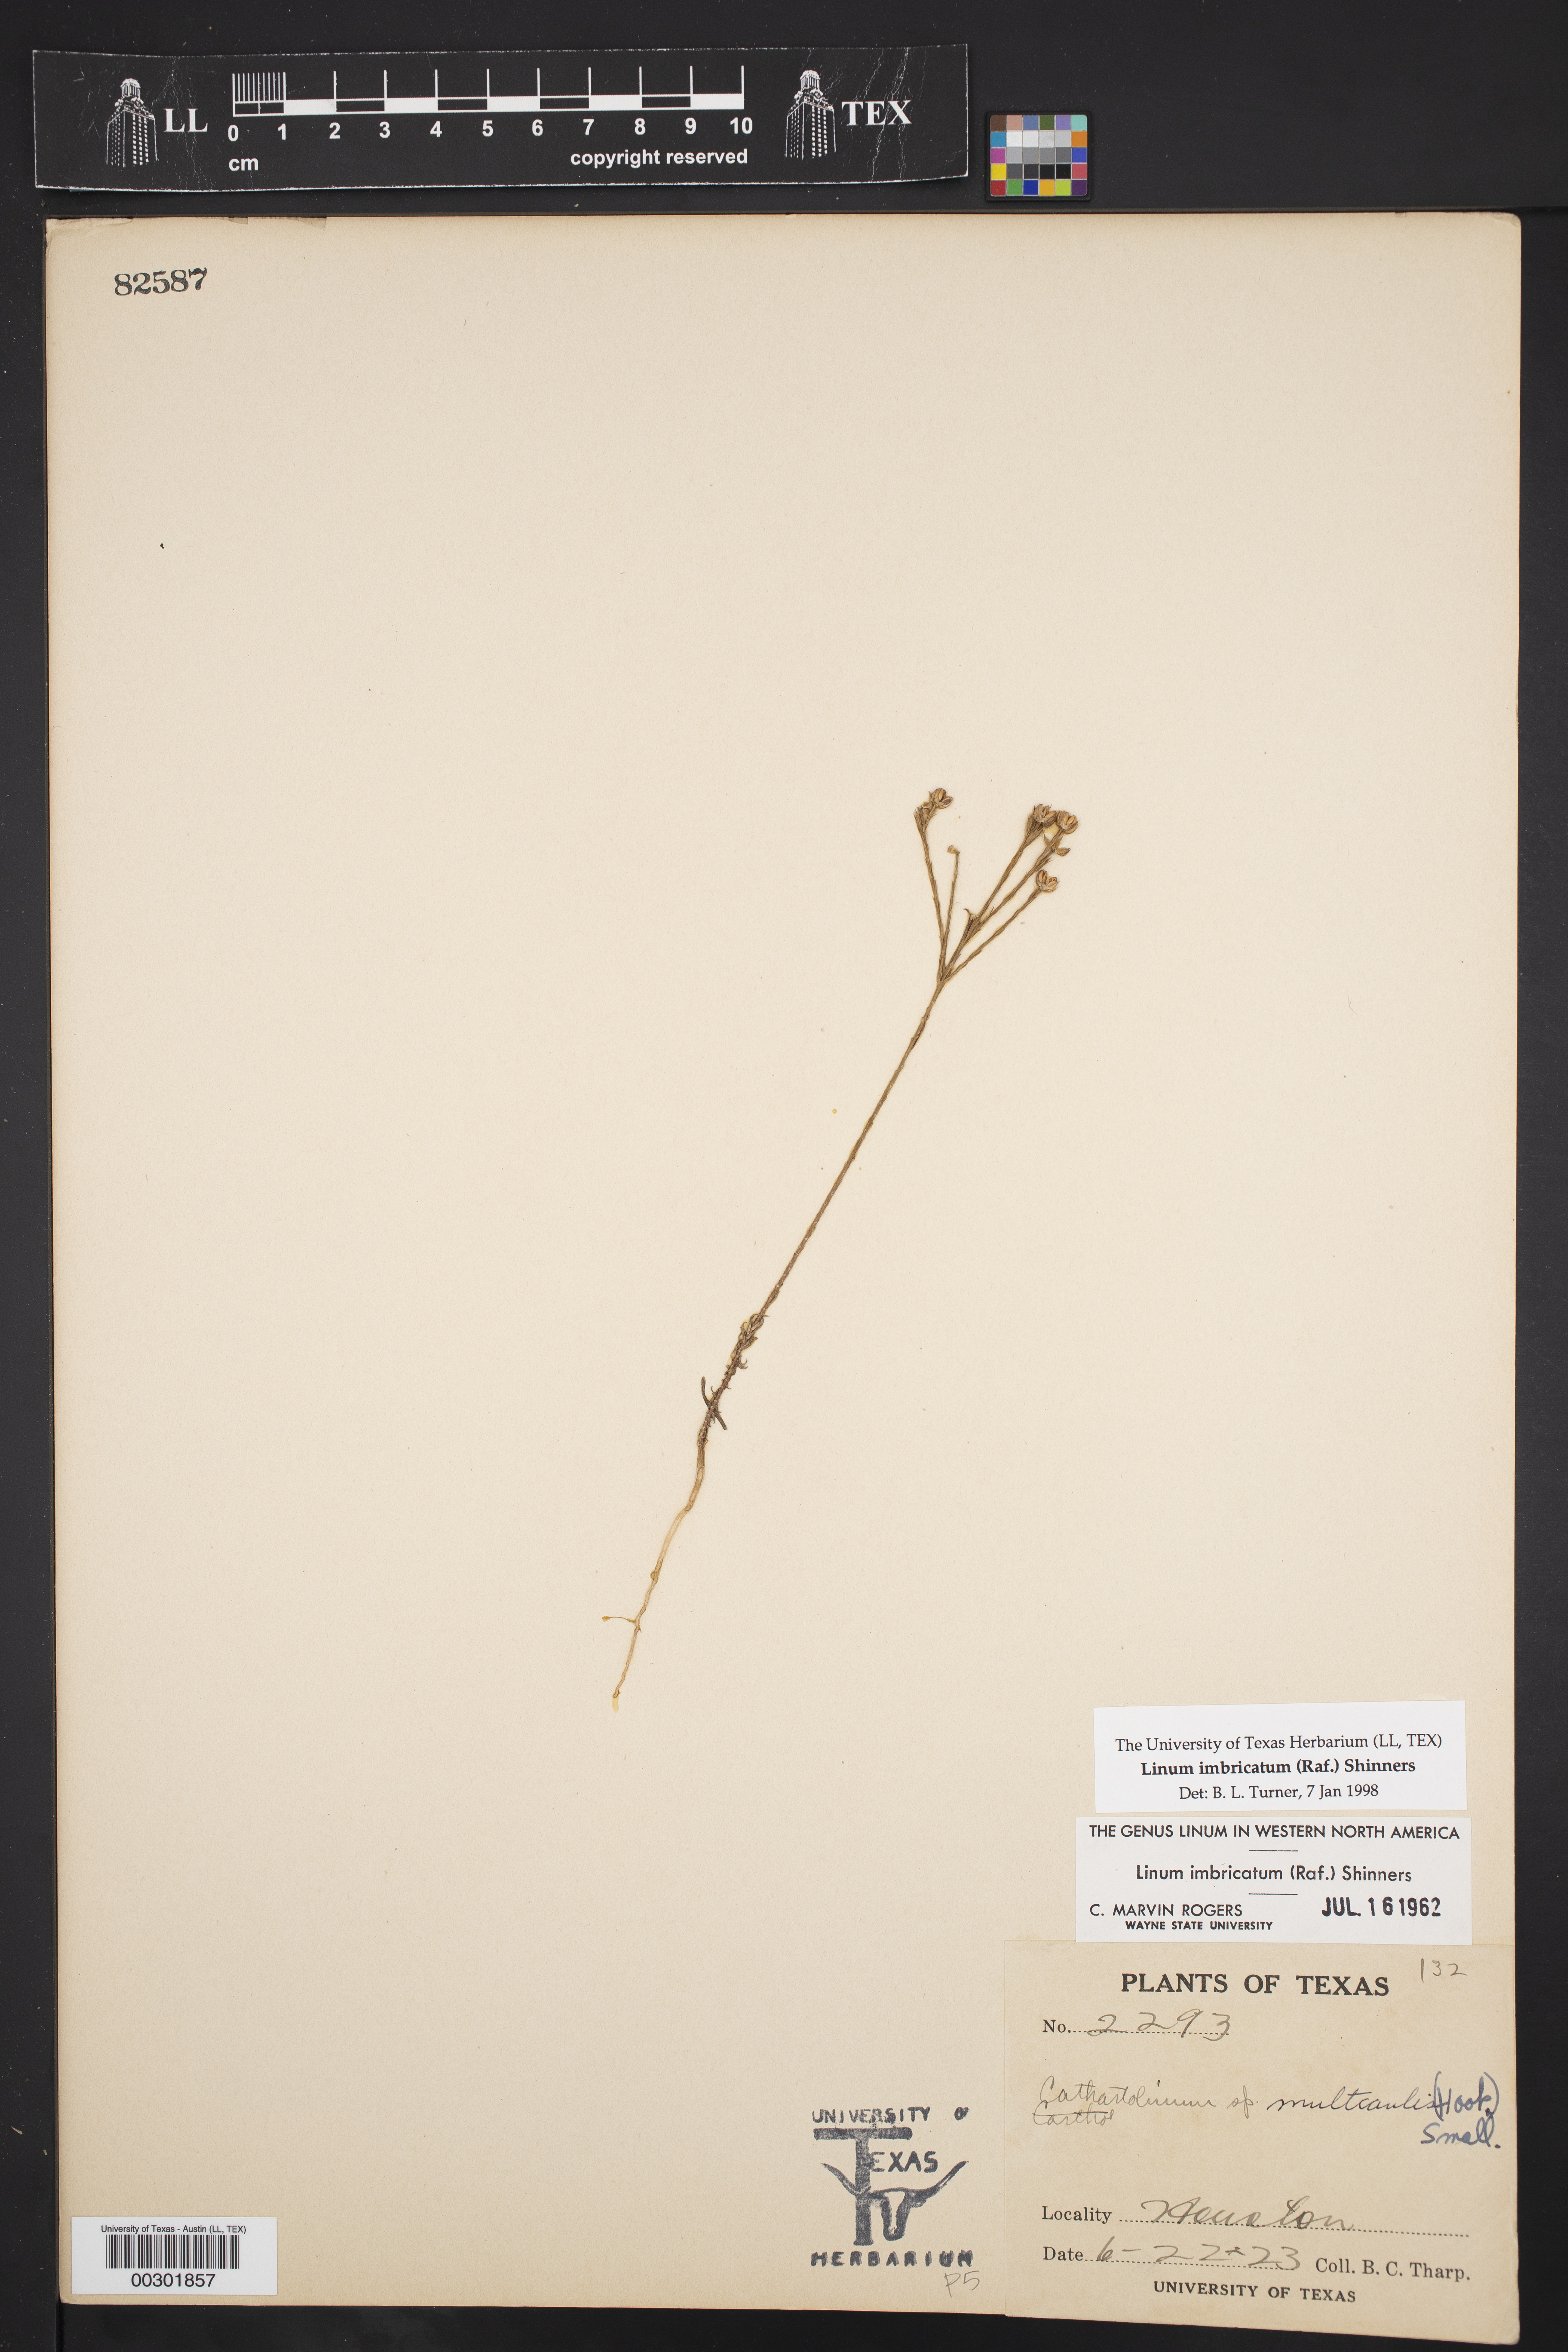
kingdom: Plantae
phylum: Tracheophyta
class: Magnoliopsida
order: Malpighiales
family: Linaceae
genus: Linum
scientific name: Linum imbricatum
